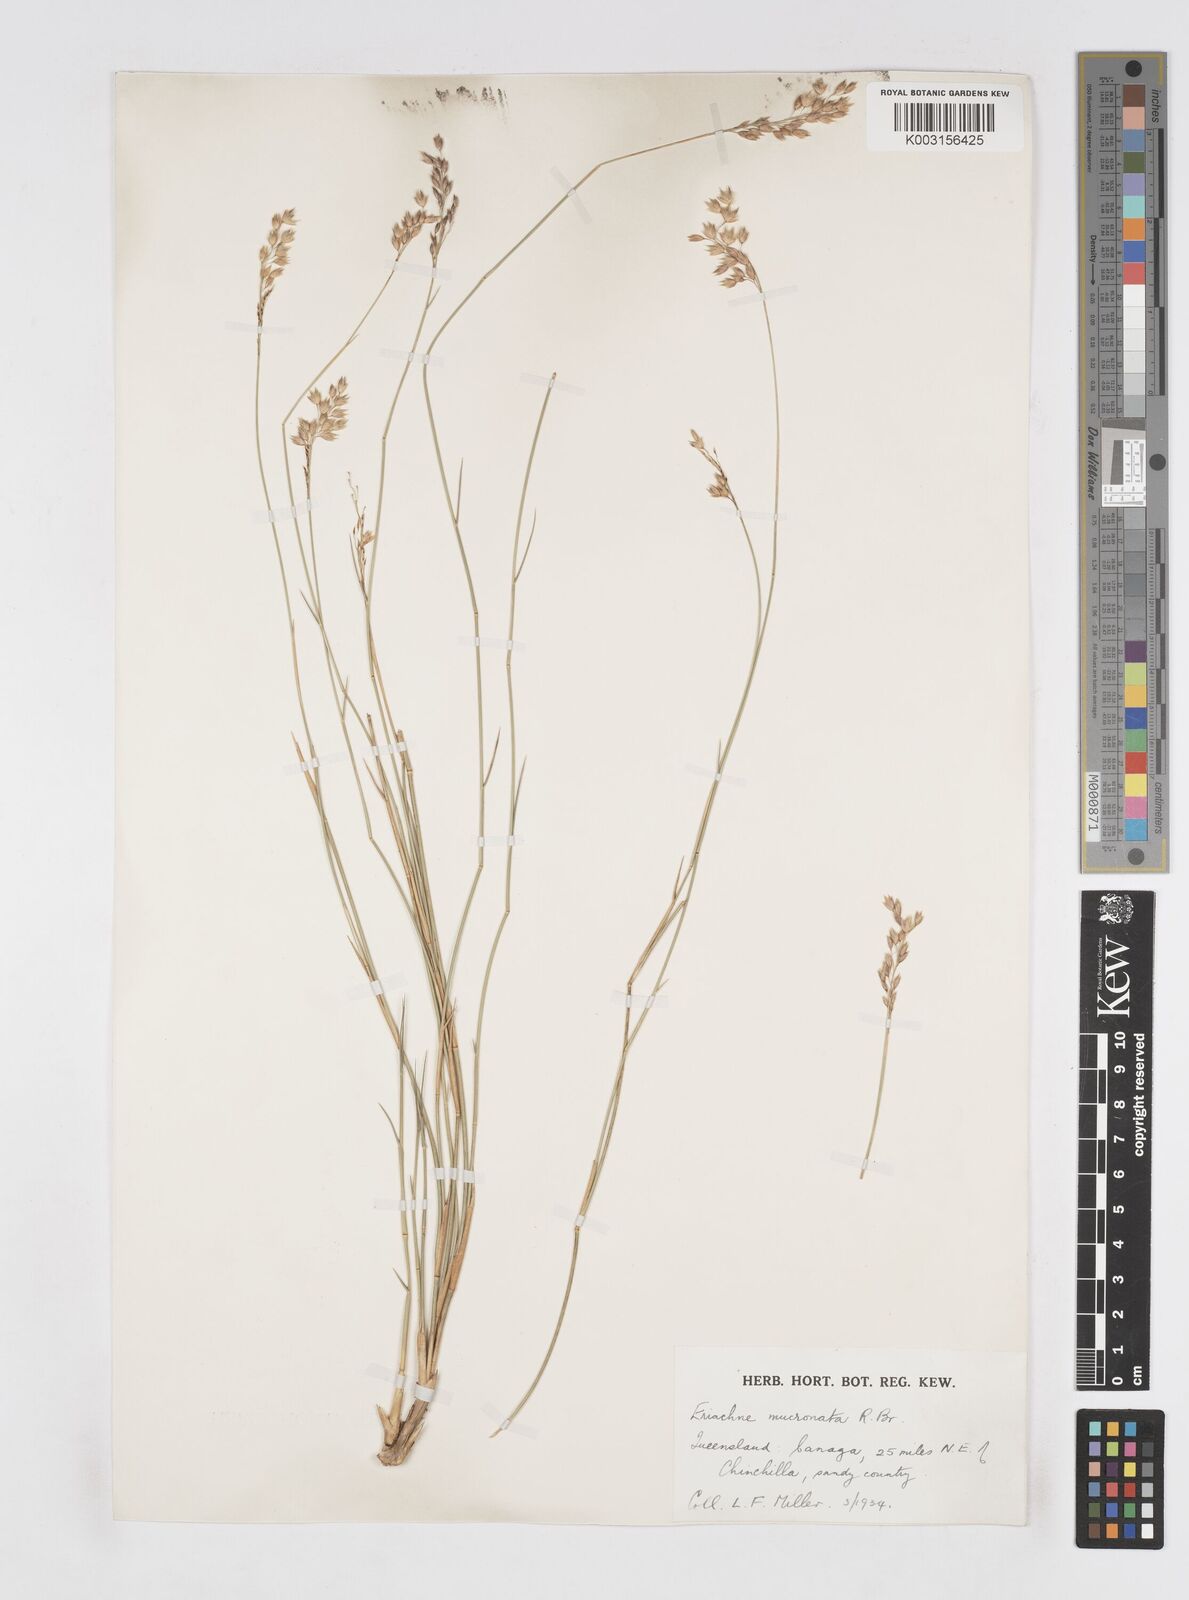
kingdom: Plantae
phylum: Tracheophyta
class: Liliopsida
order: Poales
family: Poaceae
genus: Eriachne
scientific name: Eriachne mucronata
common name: Mountain wanderrie grass
